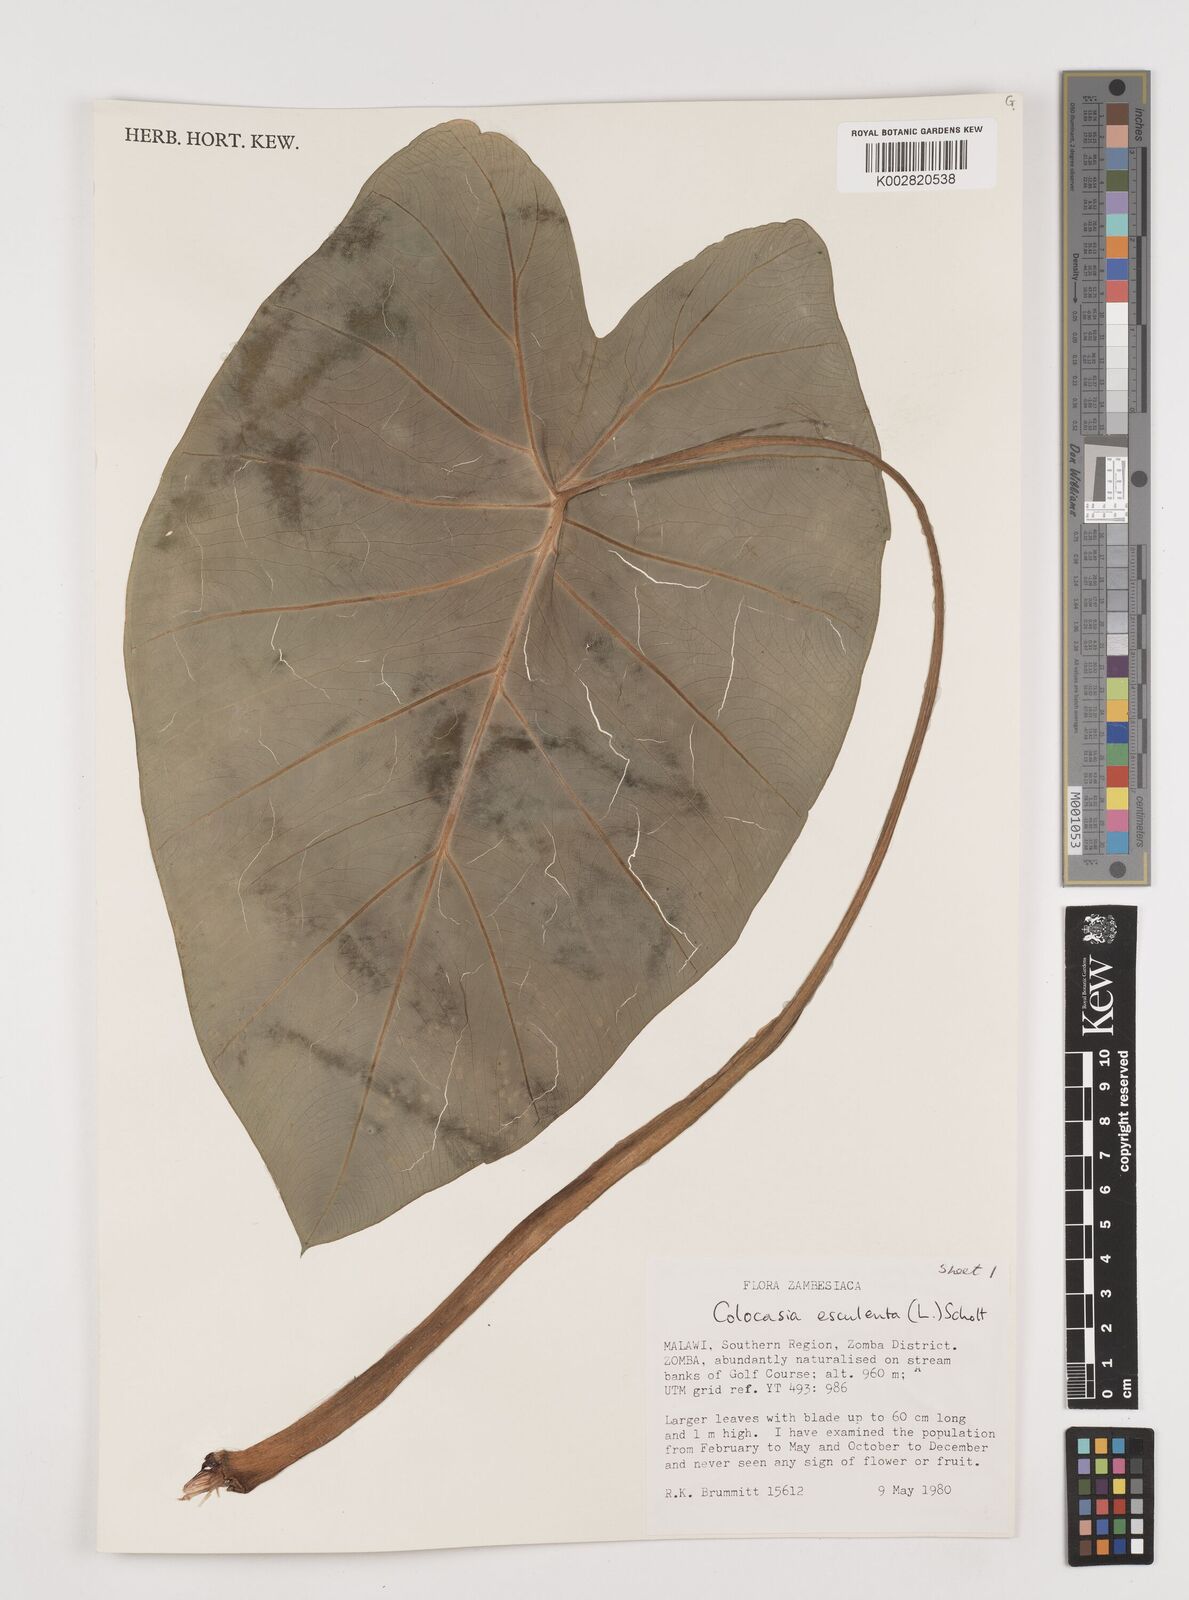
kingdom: Plantae
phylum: Tracheophyta
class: Liliopsida
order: Alismatales
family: Araceae
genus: Colocasia
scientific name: Colocasia esculenta
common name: Taro
